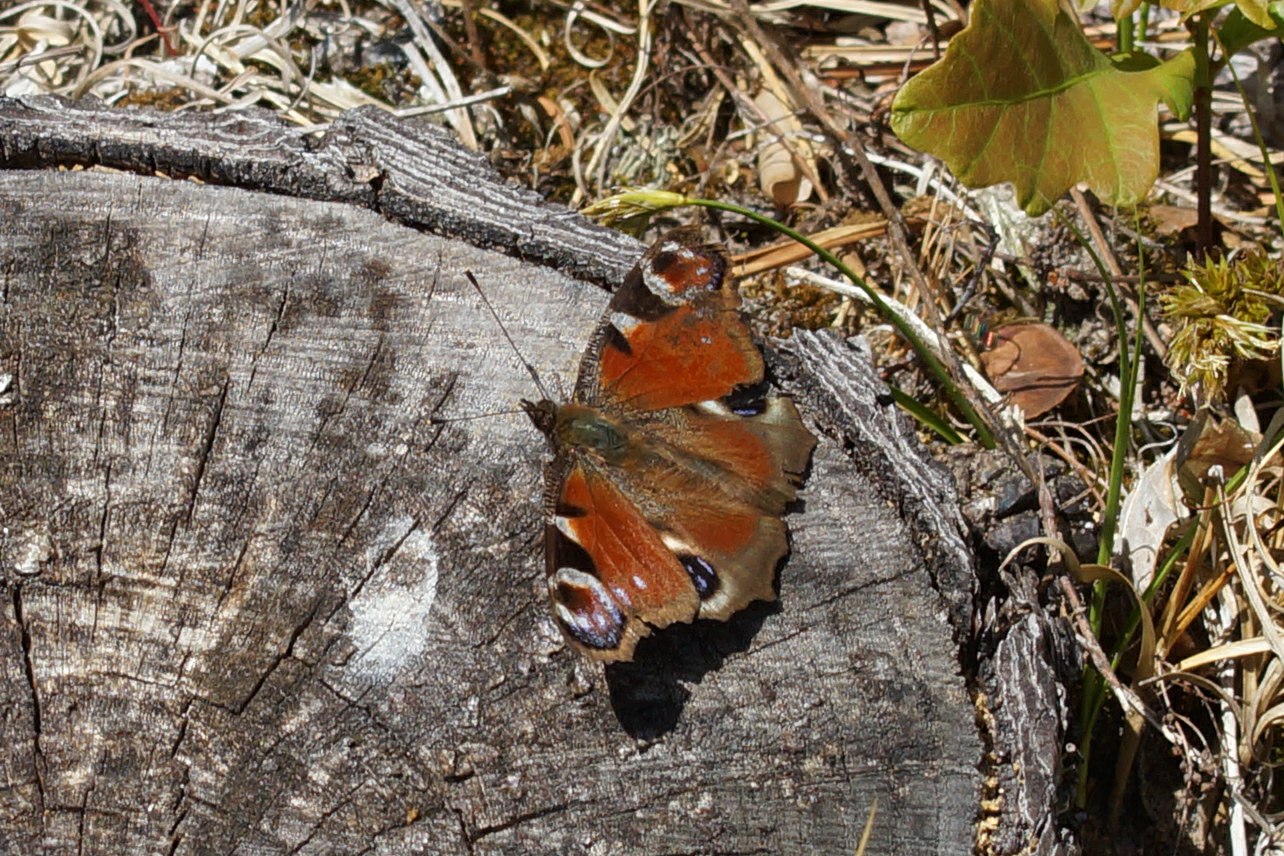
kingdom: Animalia
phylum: Arthropoda
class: Insecta
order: Lepidoptera
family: Nymphalidae
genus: Aglais
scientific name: Aglais io
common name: Dagpåfugleøje
